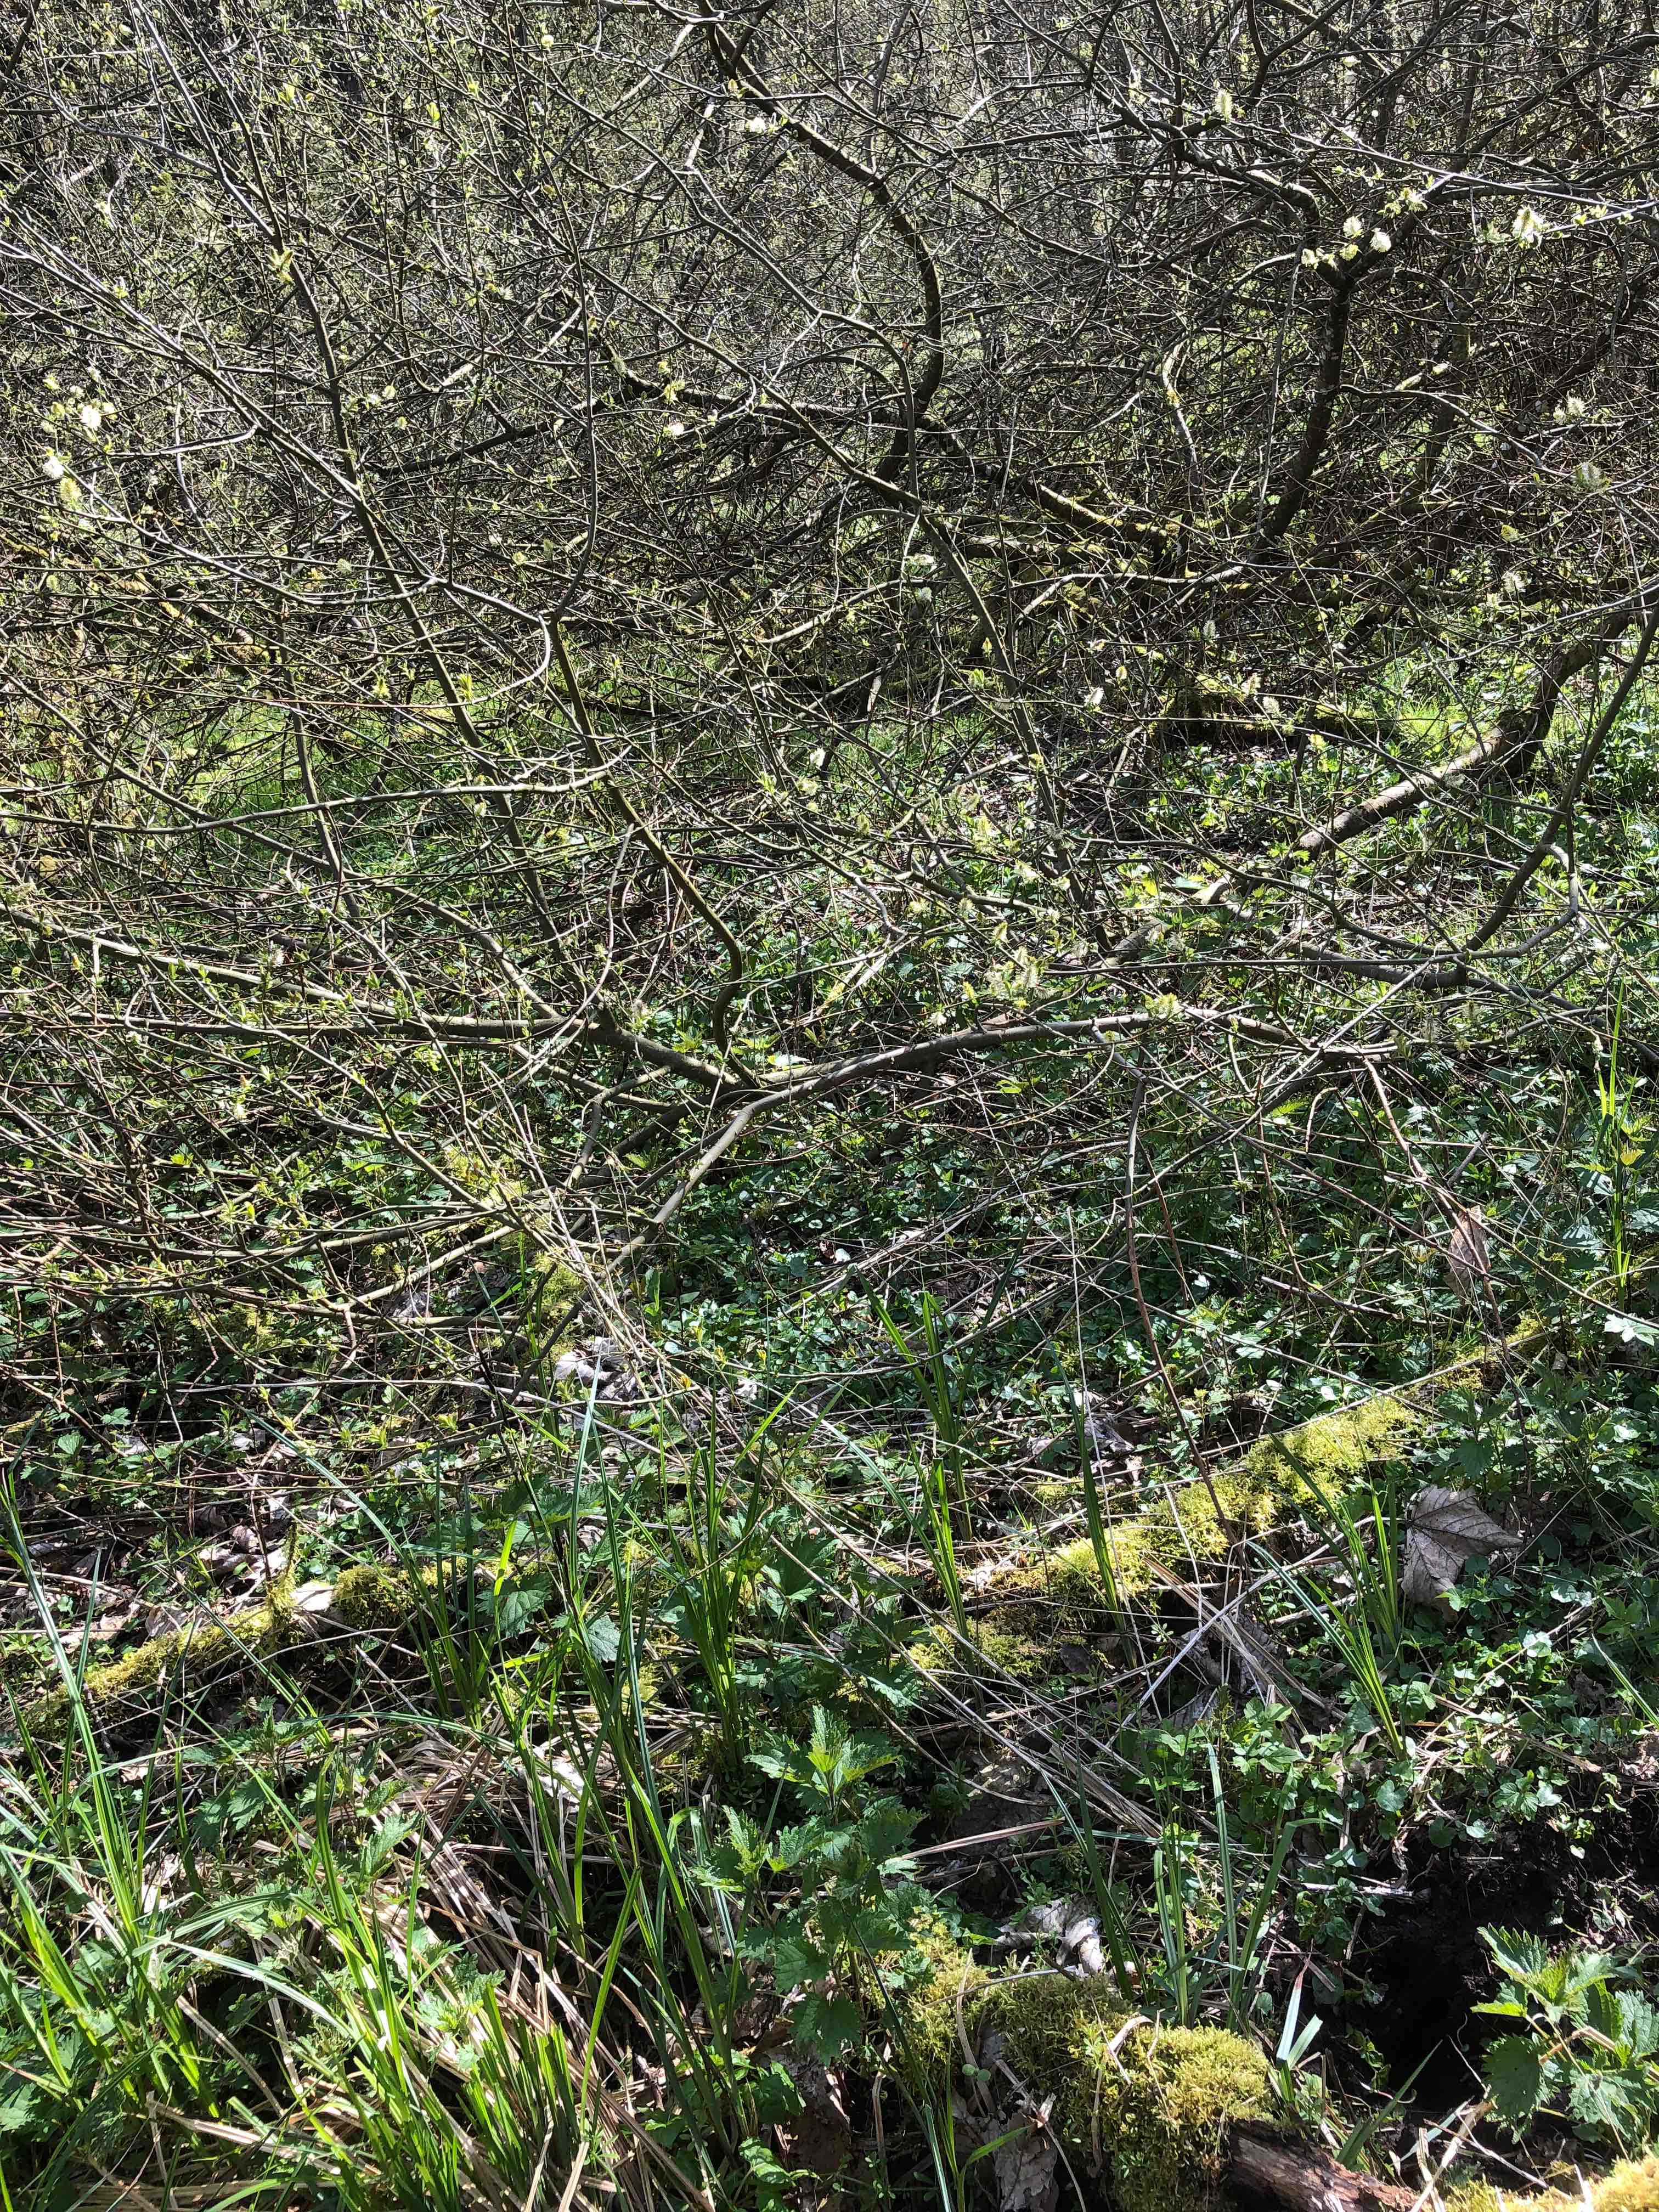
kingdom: Fungi
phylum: Basidiomycota
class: Agaricomycetes
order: Polyporales
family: Polyporaceae
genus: Lentinus
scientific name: Lentinus substrictus
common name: forårs-stilkporesvamp
